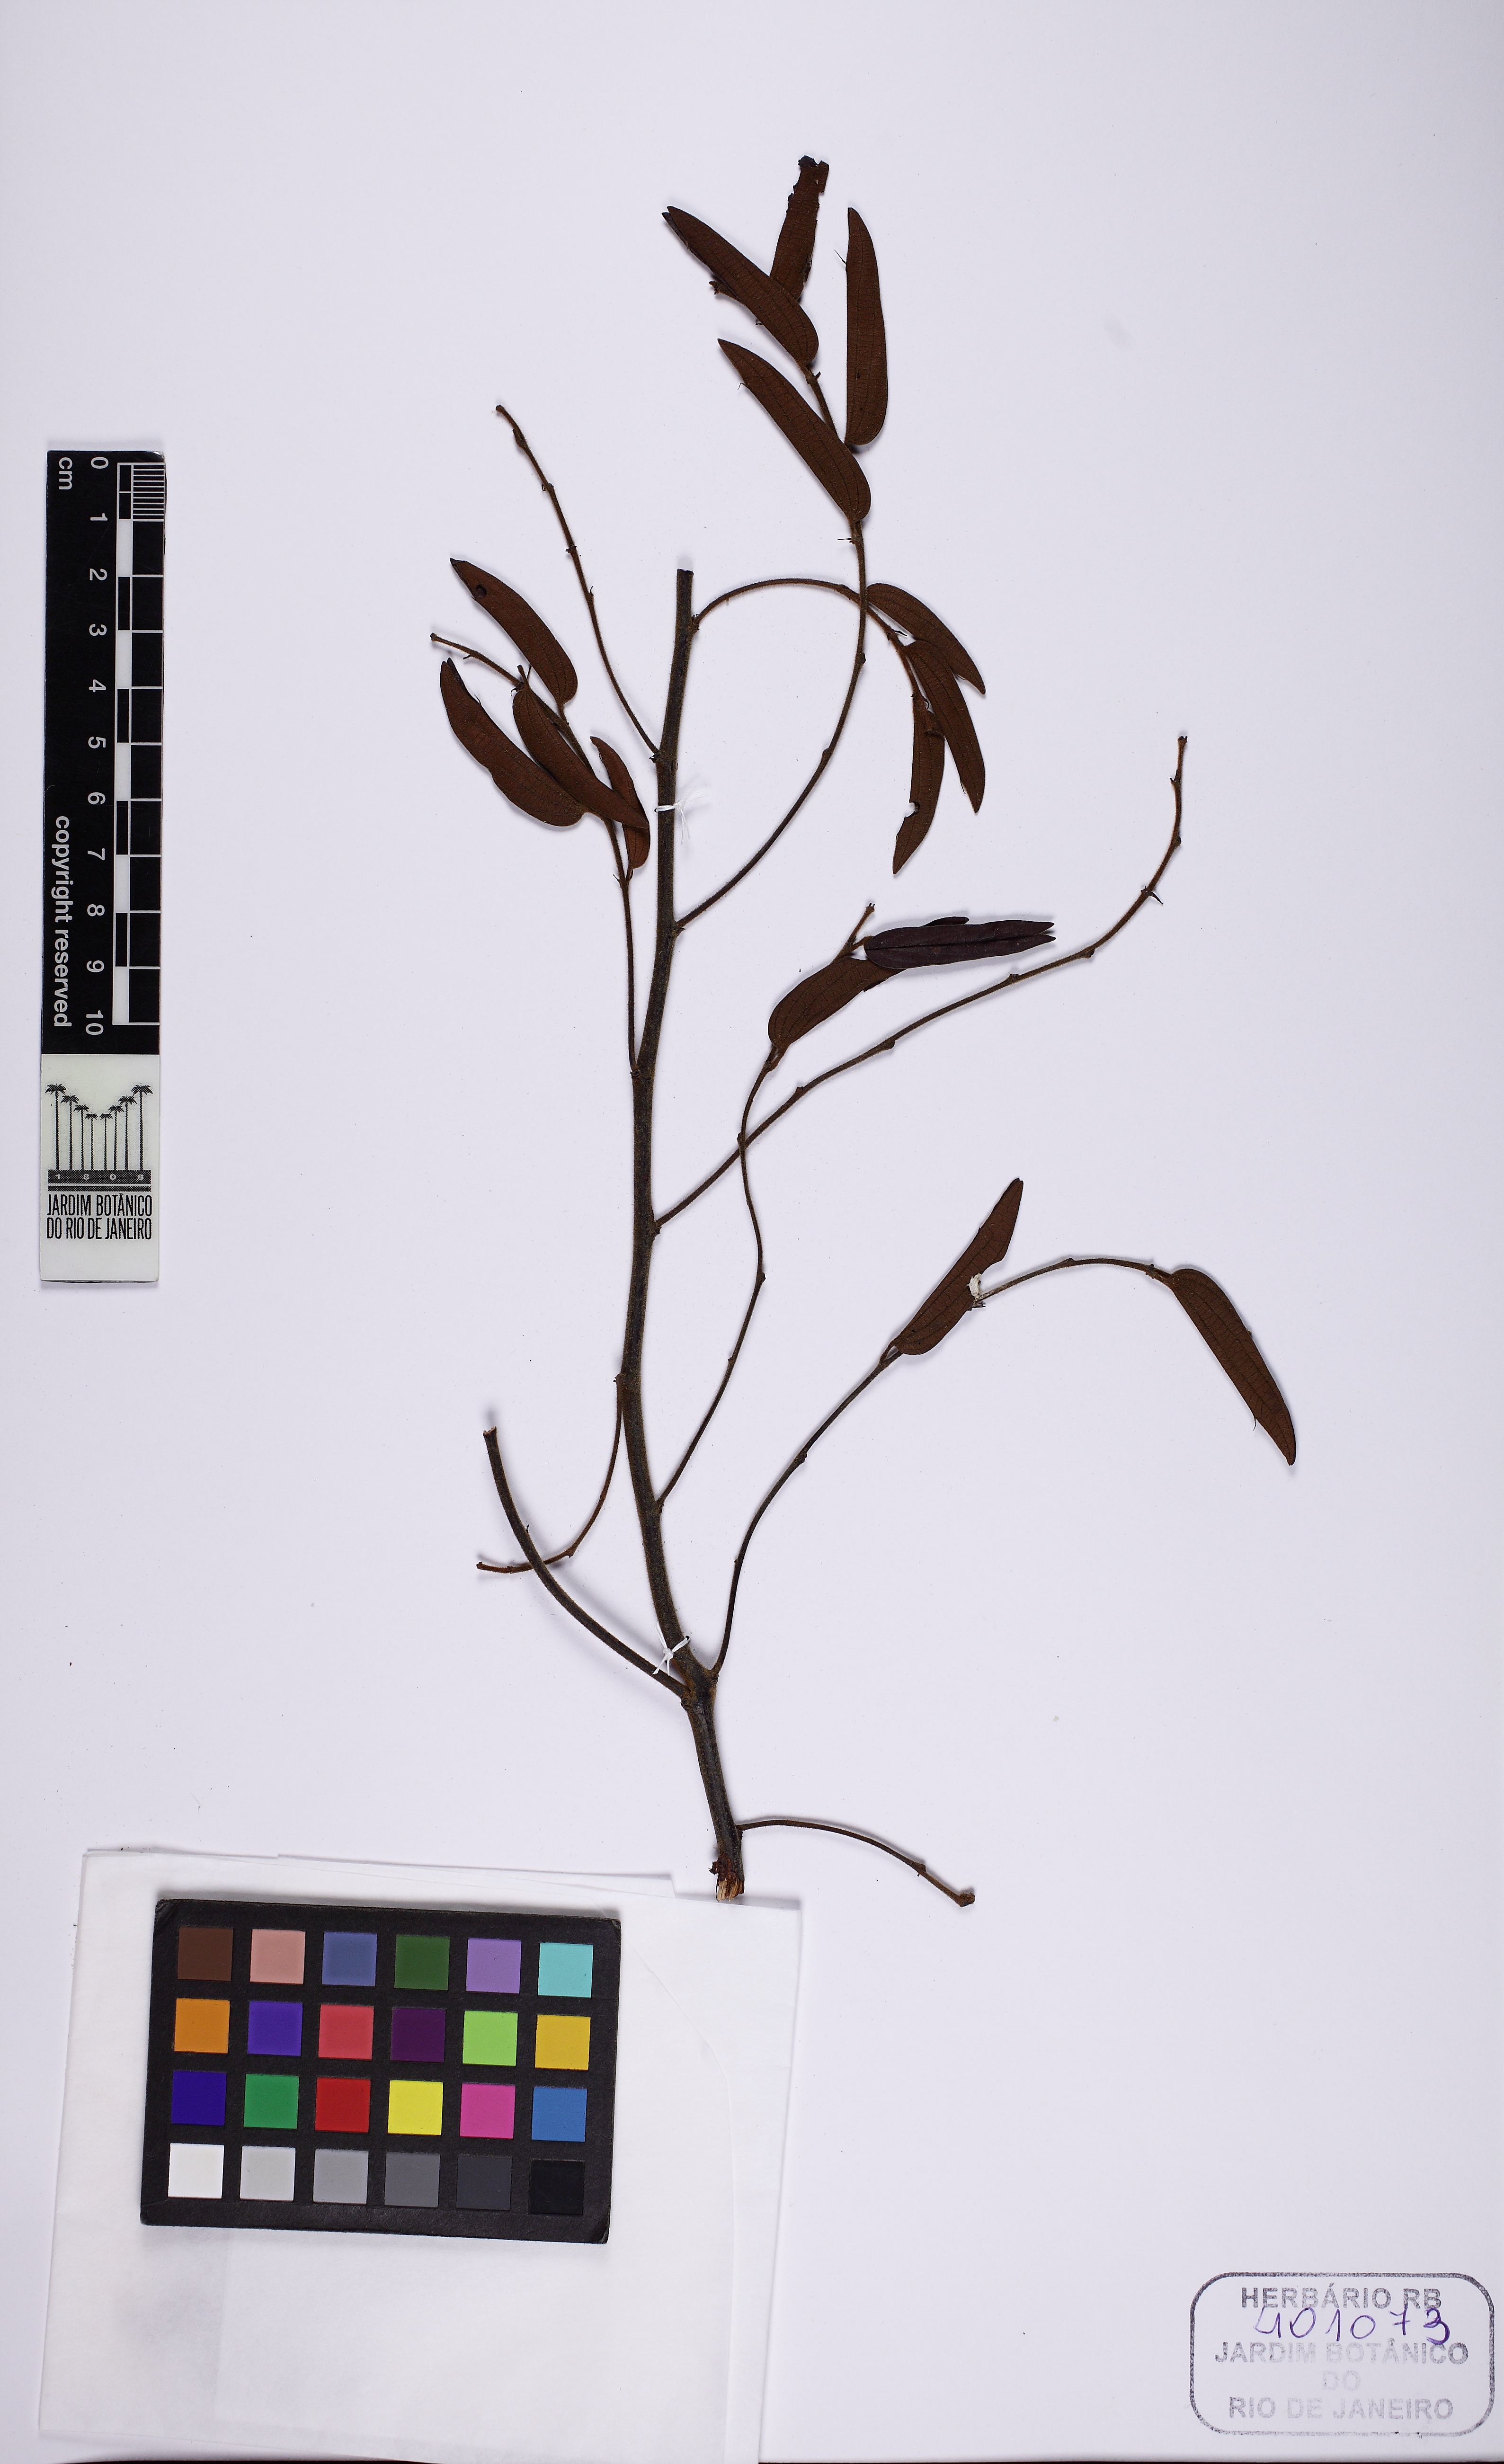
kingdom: Plantae
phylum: Tracheophyta
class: Magnoliopsida
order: Fabales
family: Fabaceae
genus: Bauhinia
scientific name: Bauhinia brevipes
